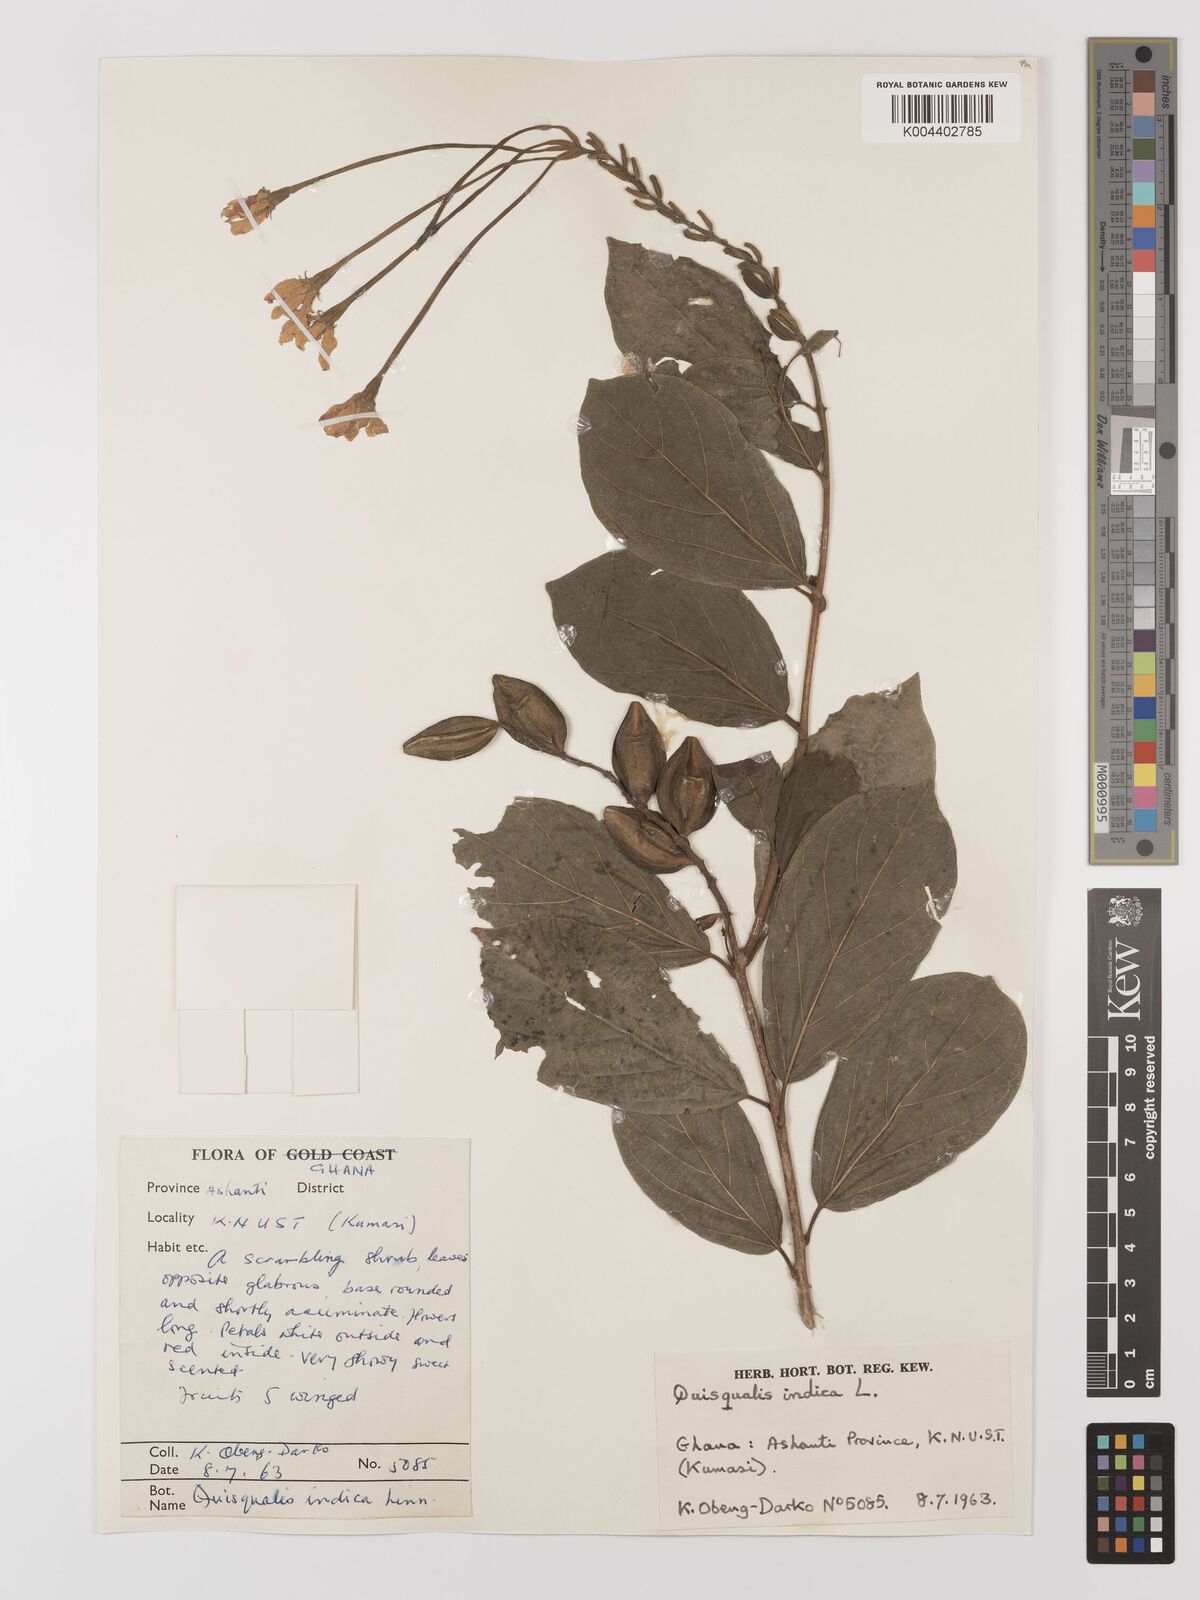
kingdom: Plantae
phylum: Tracheophyta
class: Magnoliopsida
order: Myrtales
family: Combretaceae
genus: Combretum
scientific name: Combretum
